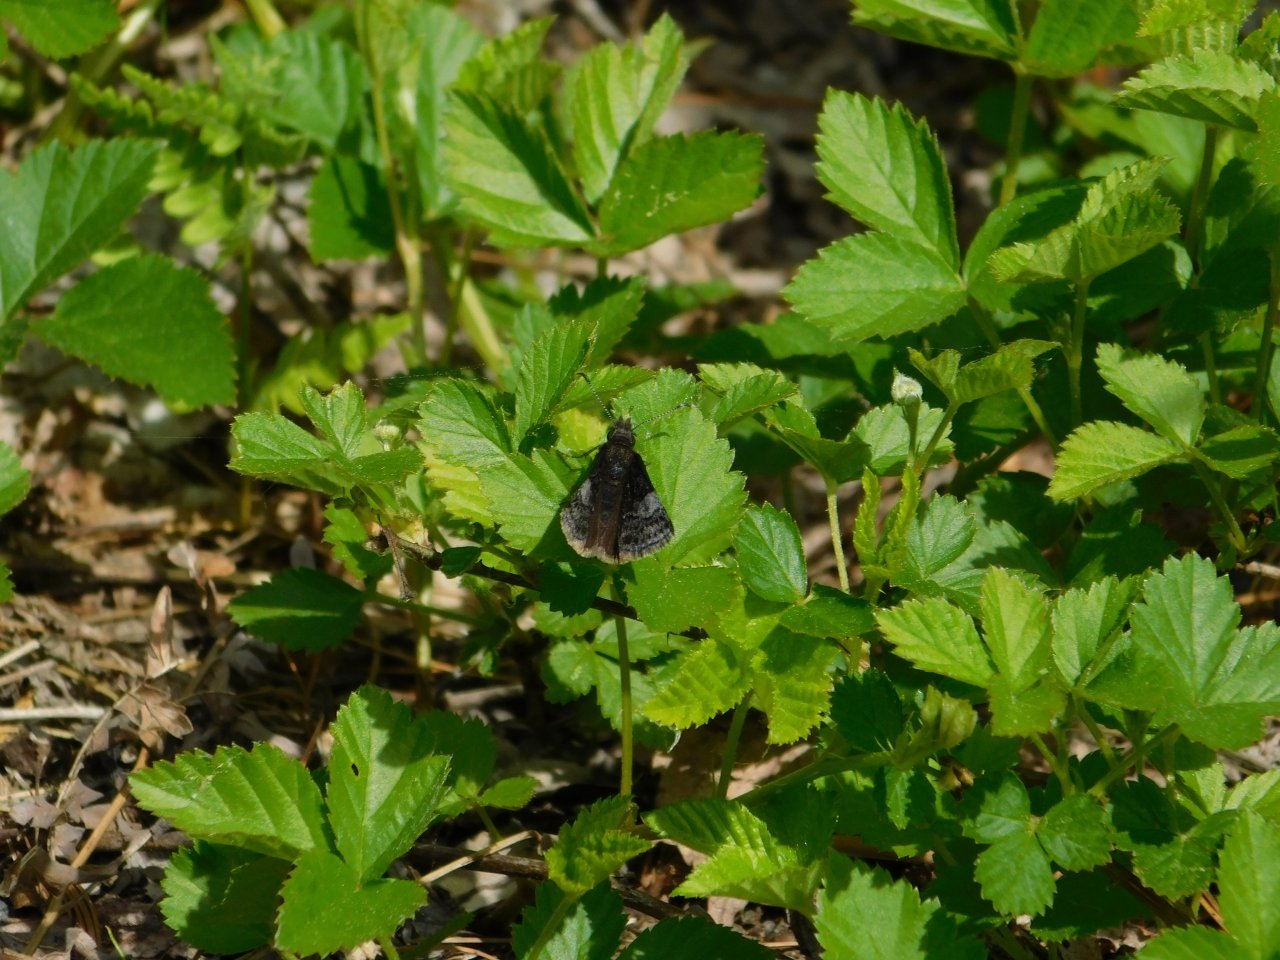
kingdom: Animalia
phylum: Arthropoda
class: Insecta
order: Lepidoptera
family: Hesperiidae
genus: Erynnis
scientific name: Erynnis icelus
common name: Dreamy Duskywing
